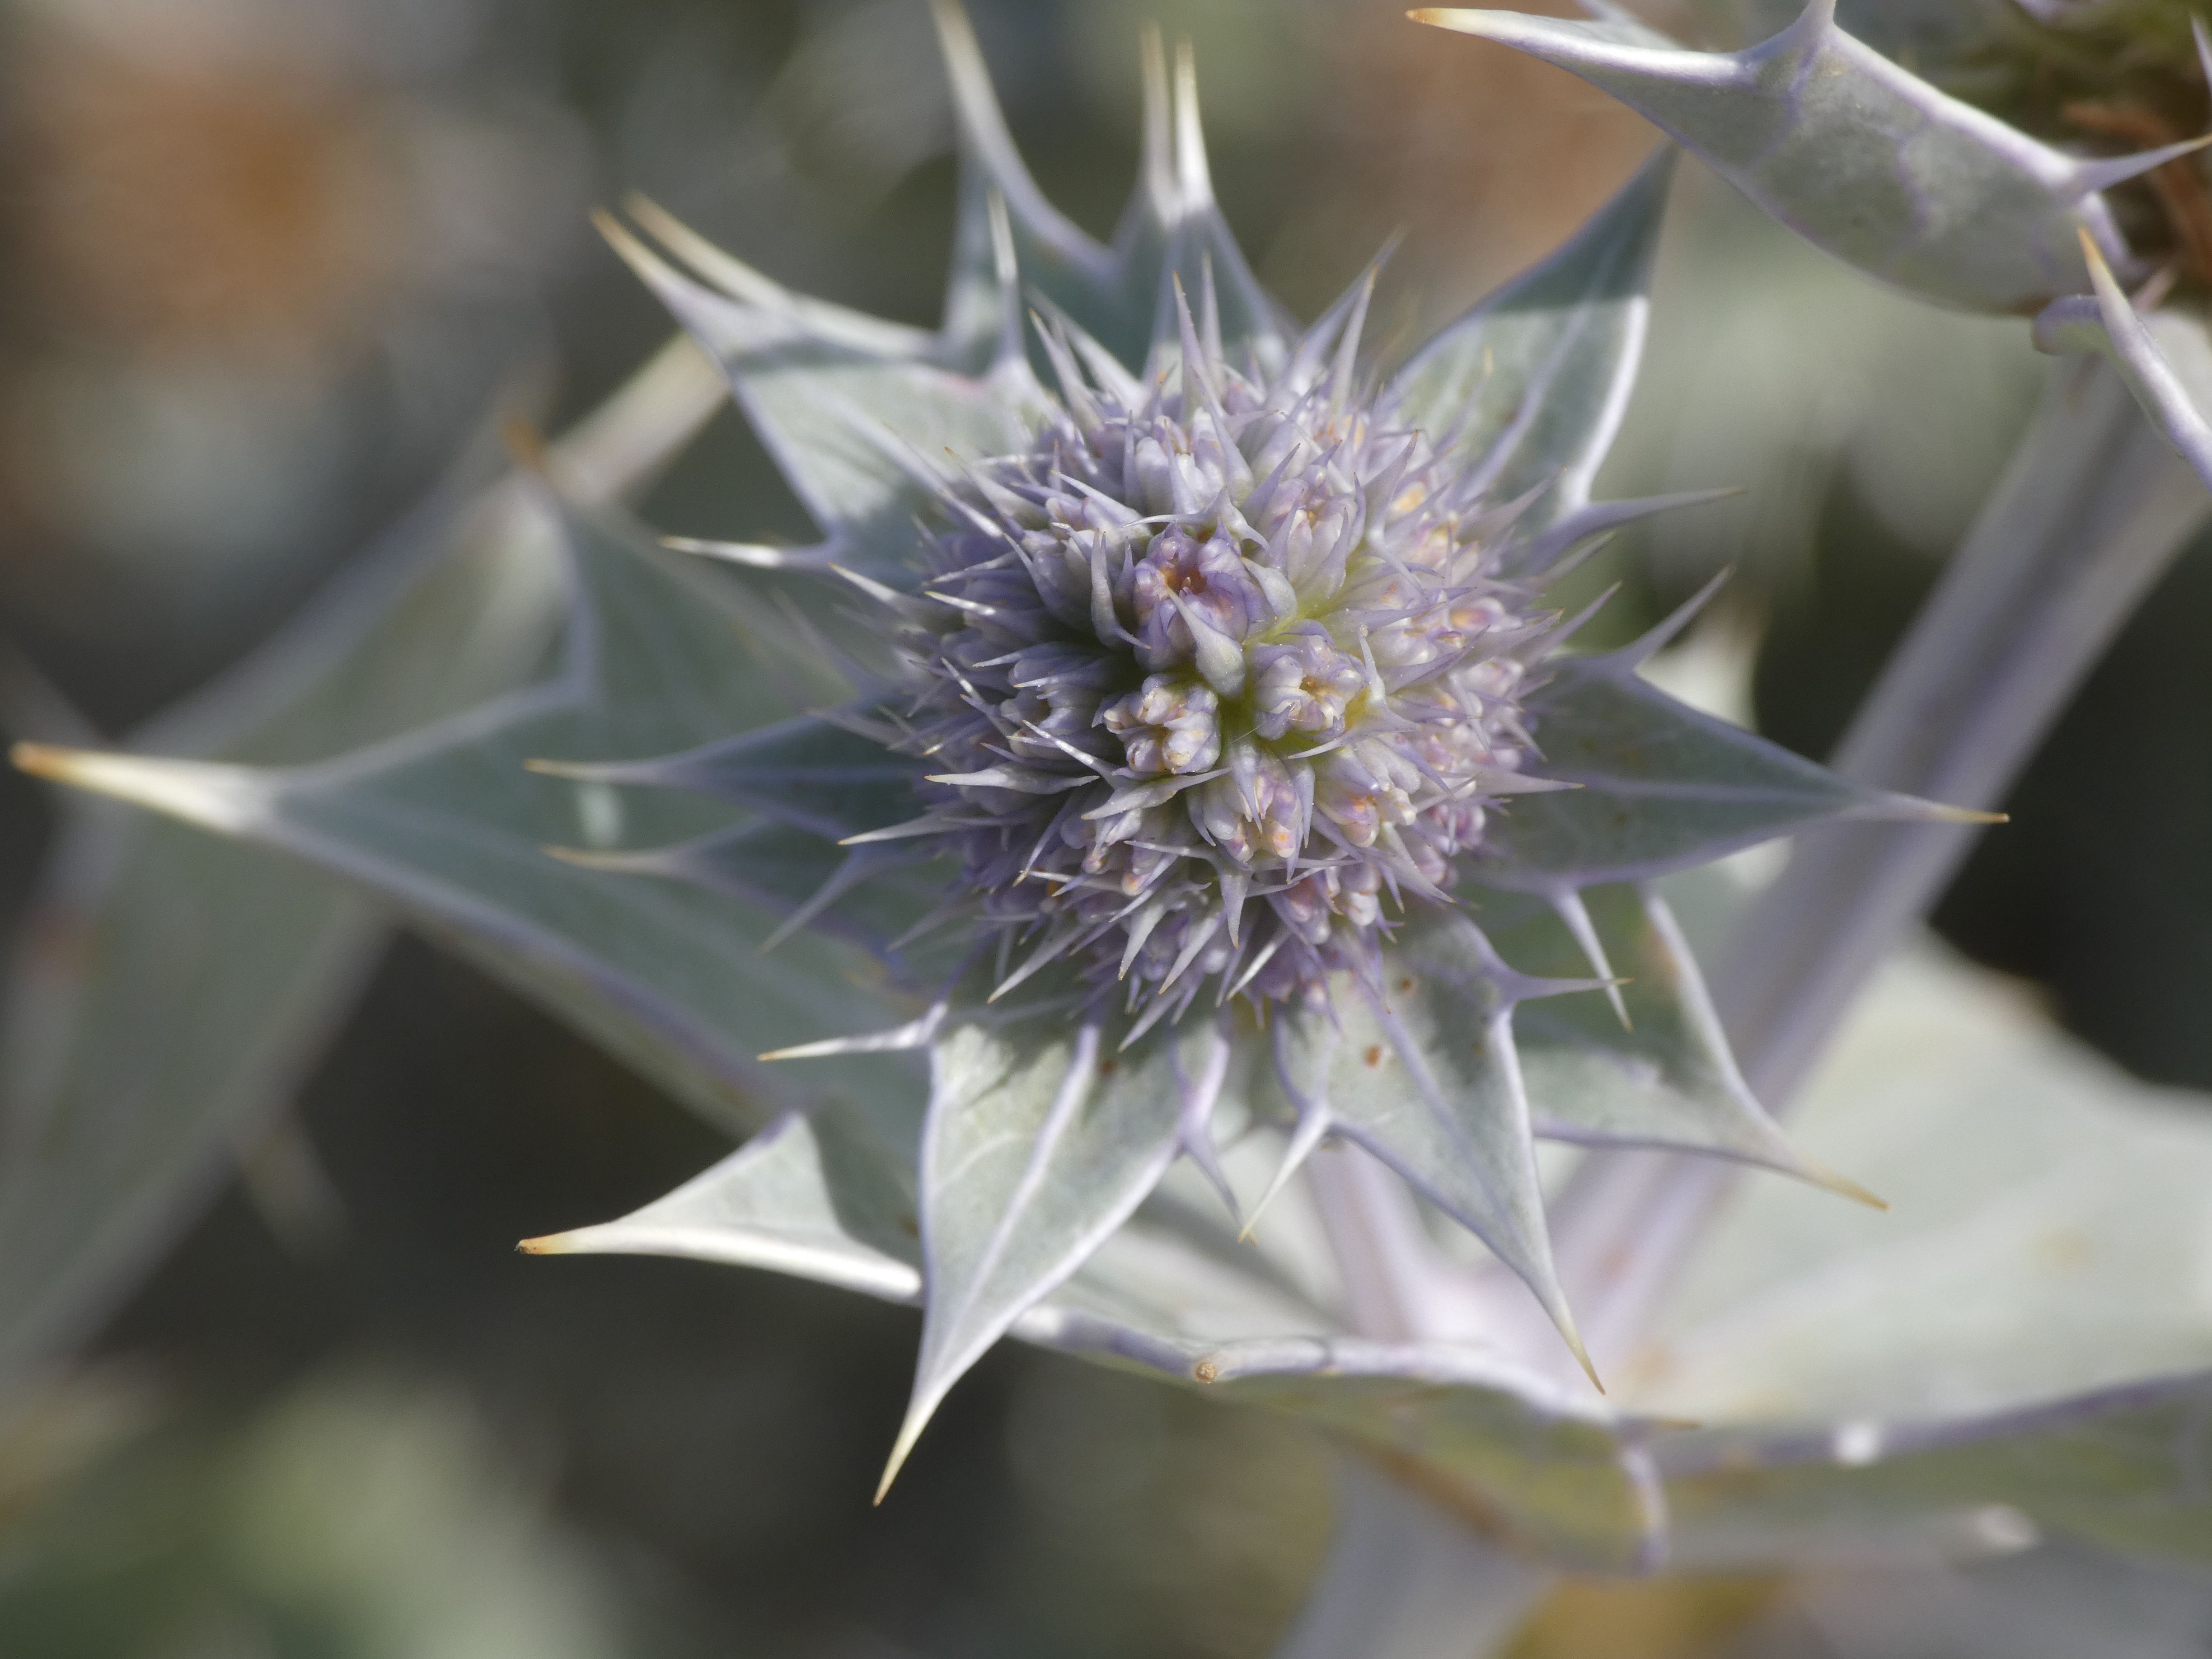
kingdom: Plantae
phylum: Tracheophyta
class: Magnoliopsida
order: Apiales
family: Apiaceae
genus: Eryngium
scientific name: Eryngium maritimum
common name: Strand-mandstro
